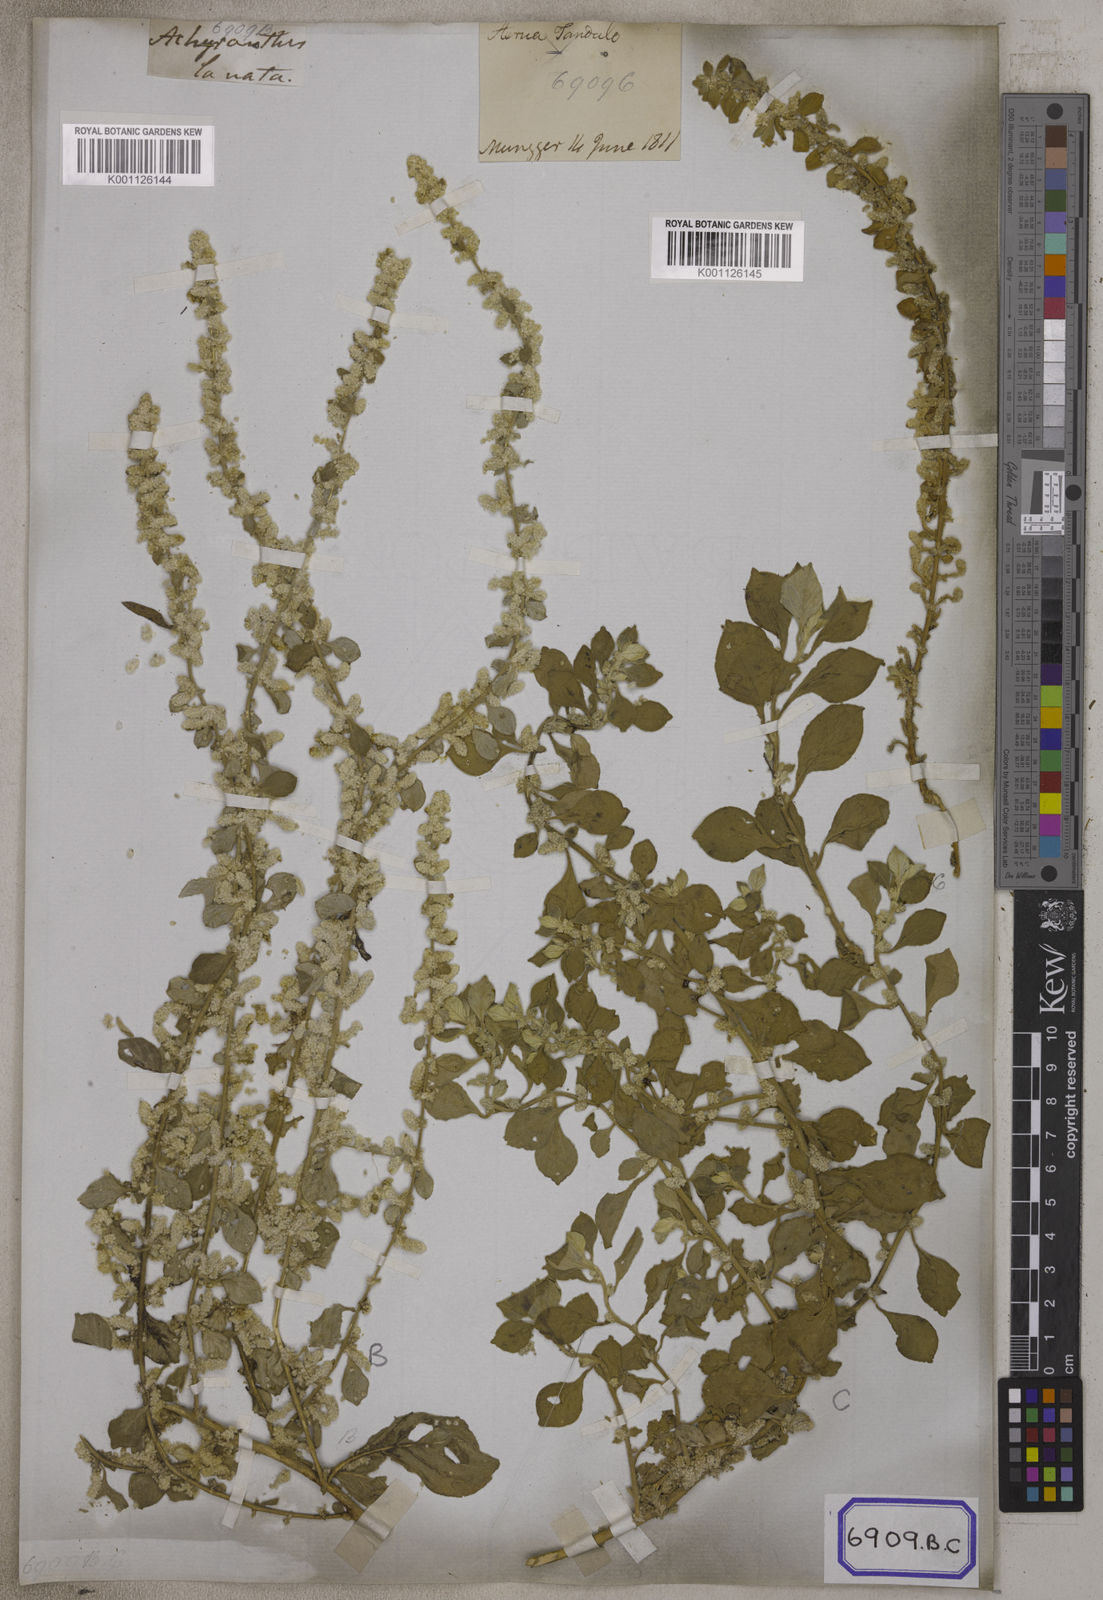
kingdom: Plantae
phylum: Tracheophyta
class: Magnoliopsida
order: Caryophyllales
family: Amaranthaceae
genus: Aerva
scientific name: Aerva
